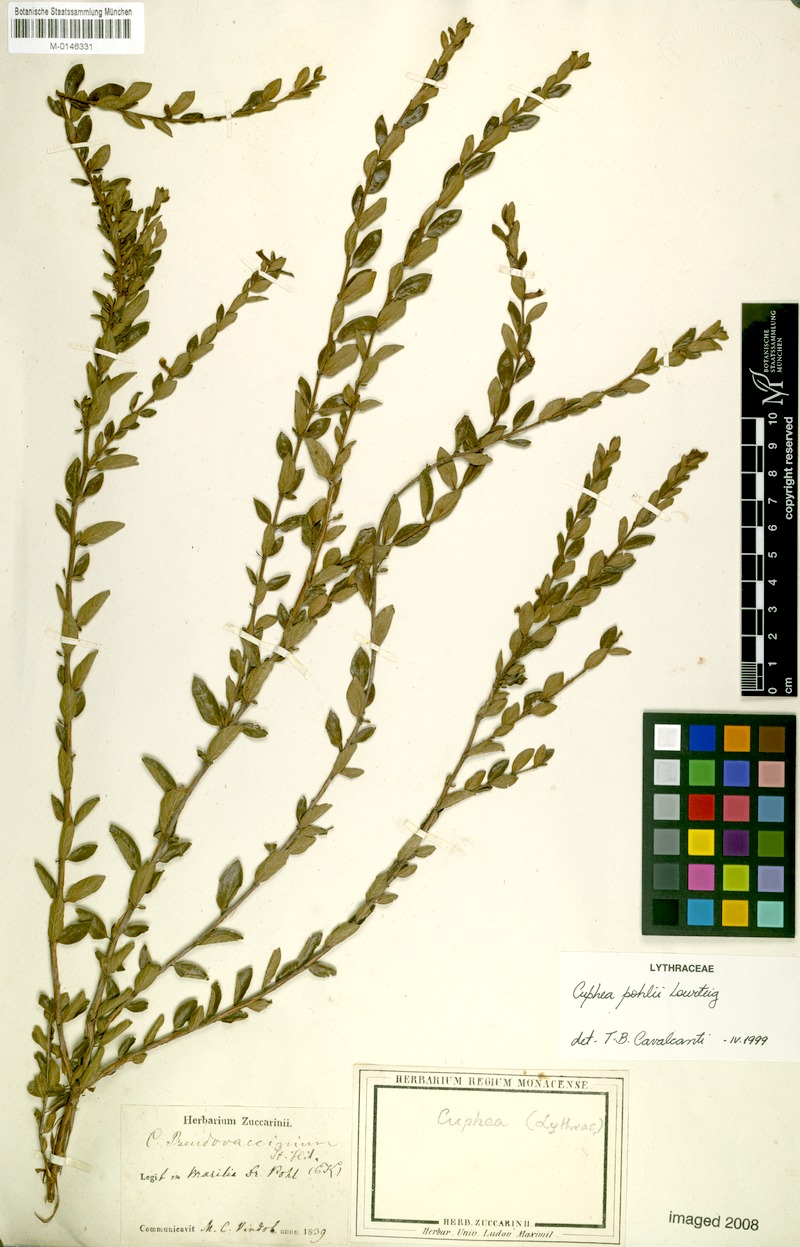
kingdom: Plantae
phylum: Tracheophyta
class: Magnoliopsida
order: Myrtales
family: Lythraceae
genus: Cuphea
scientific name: Cuphea pohlii
